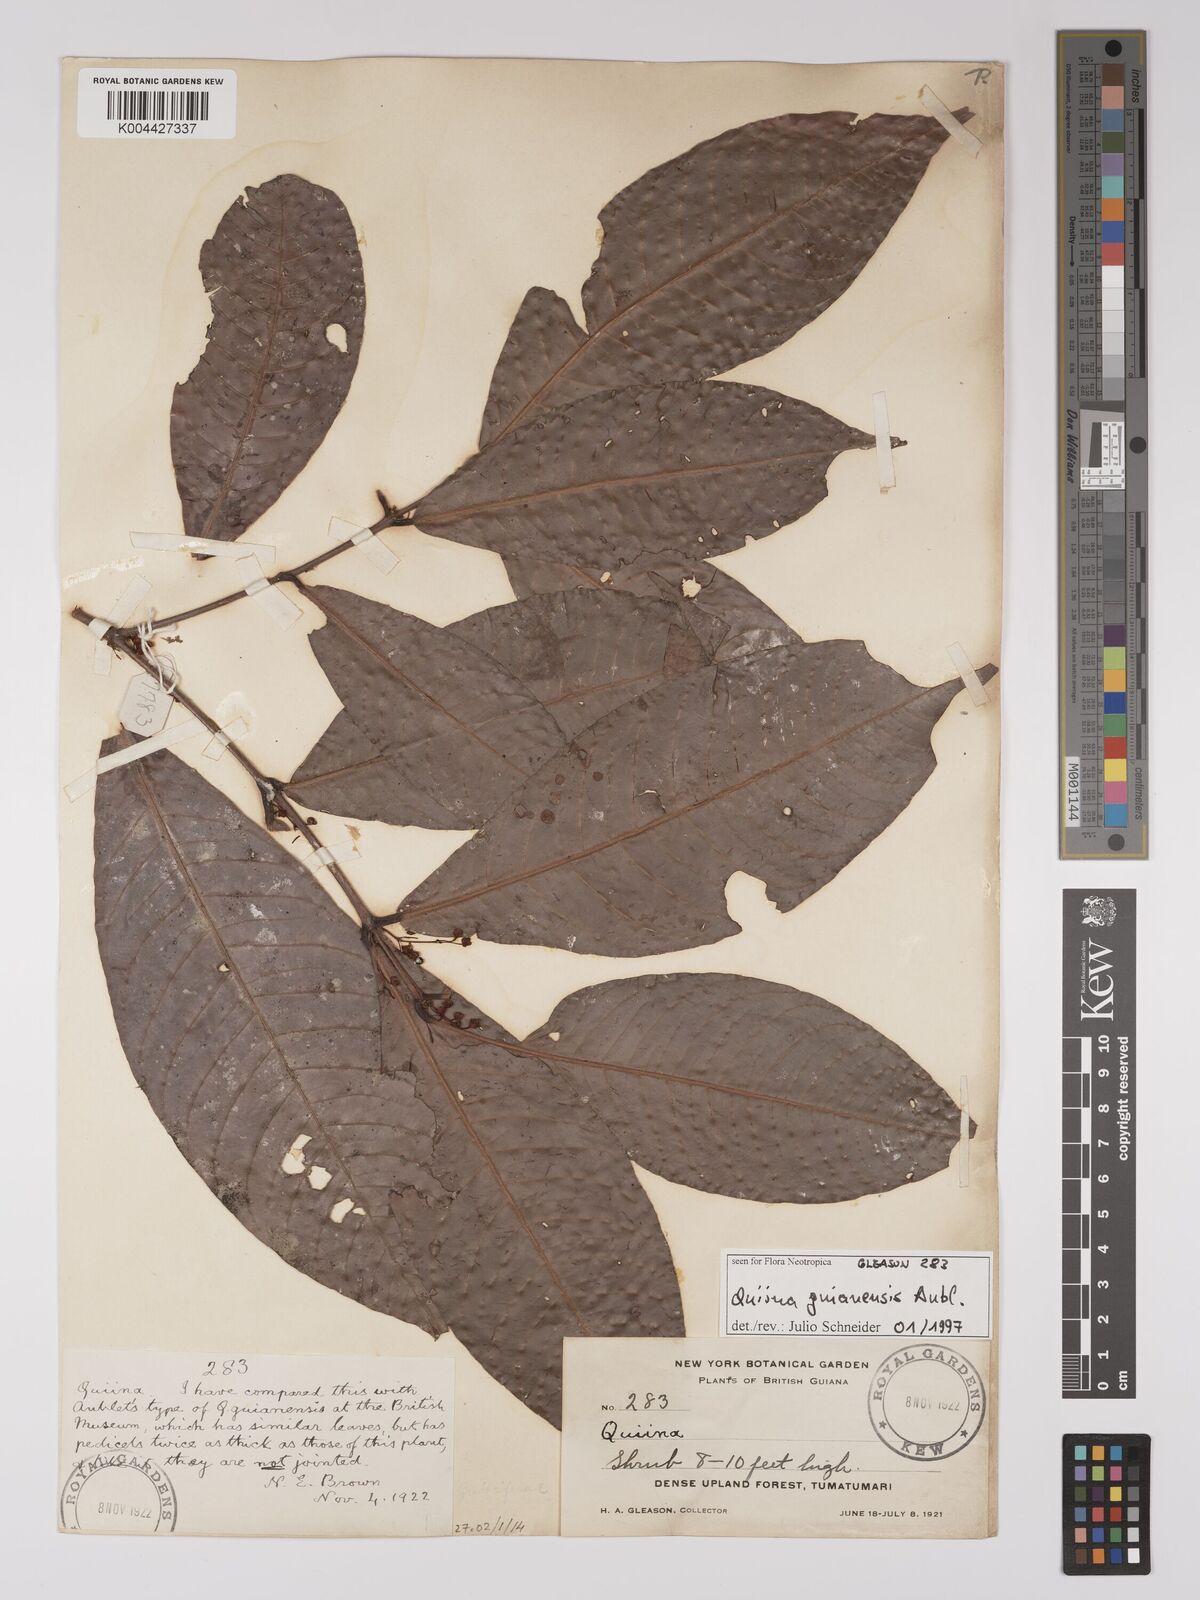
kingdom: Plantae
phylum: Tracheophyta
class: Magnoliopsida
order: Malpighiales
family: Quiinaceae
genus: Quiina
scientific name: Quiina guianensis
